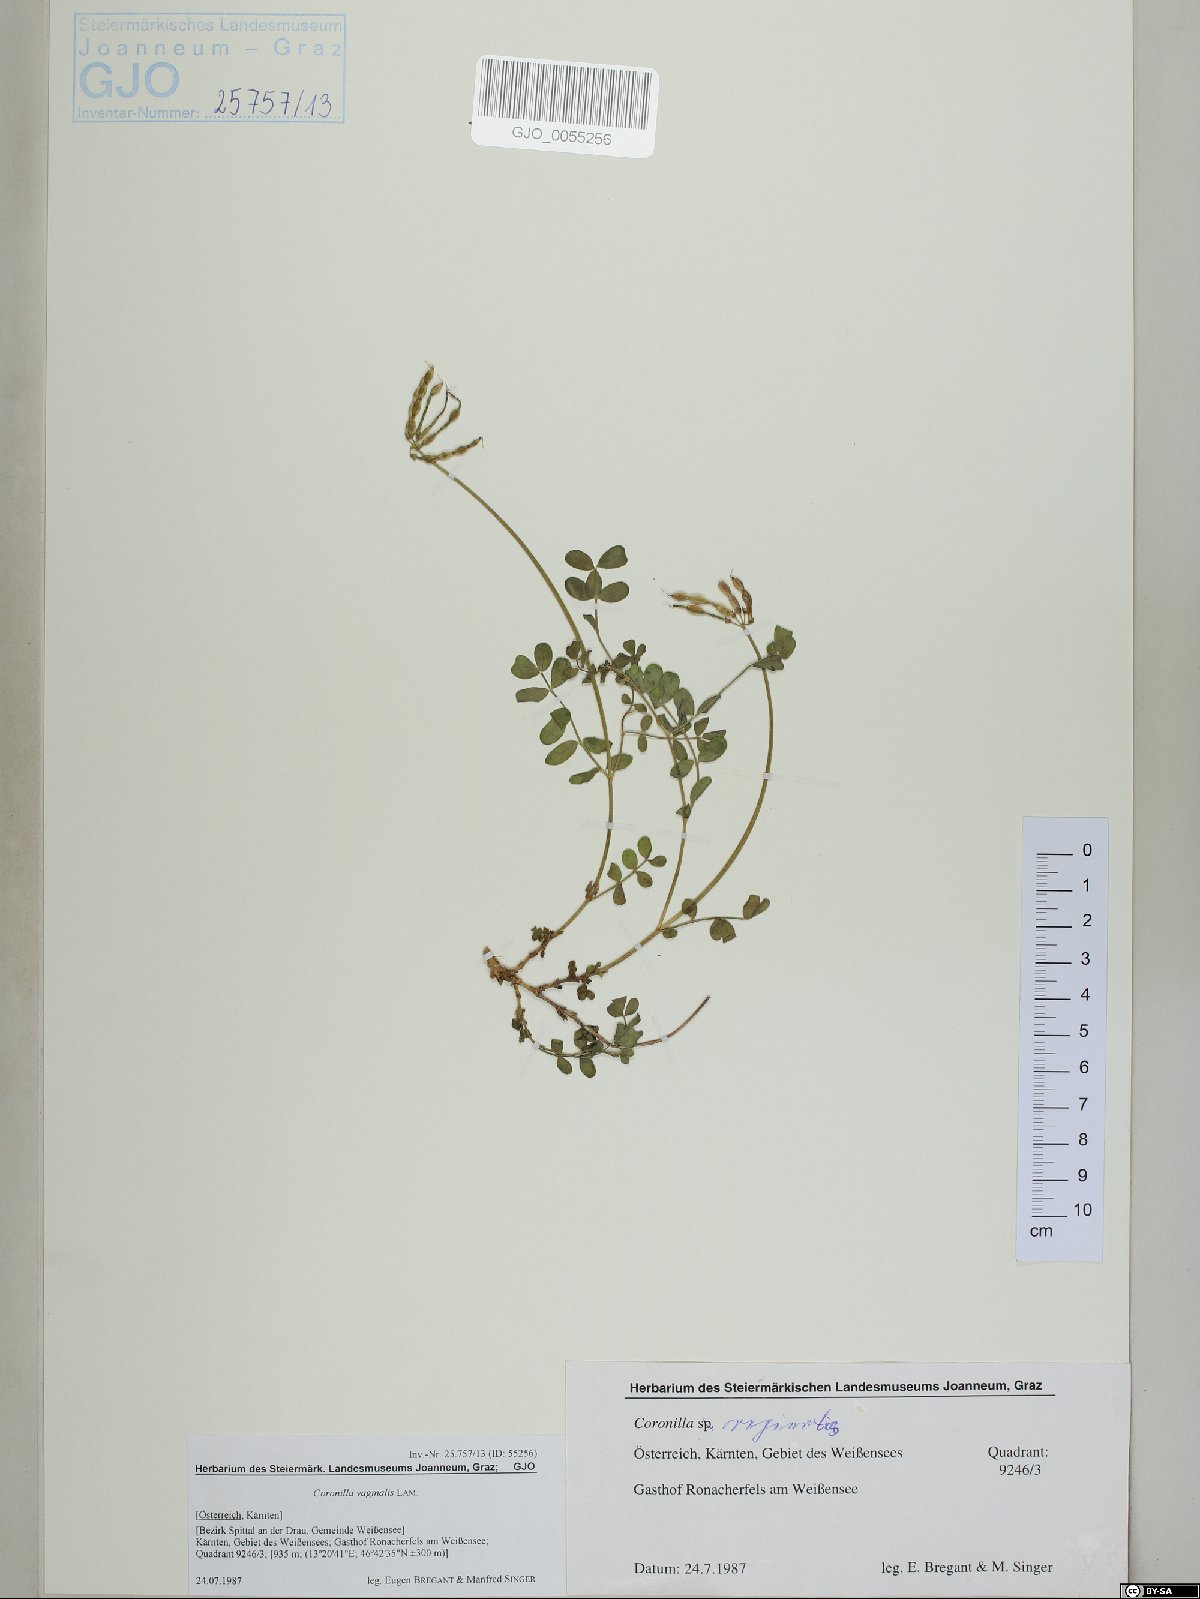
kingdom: Plantae
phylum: Tracheophyta
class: Magnoliopsida
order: Fabales
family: Fabaceae
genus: Coronilla
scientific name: Coronilla vaginalis
